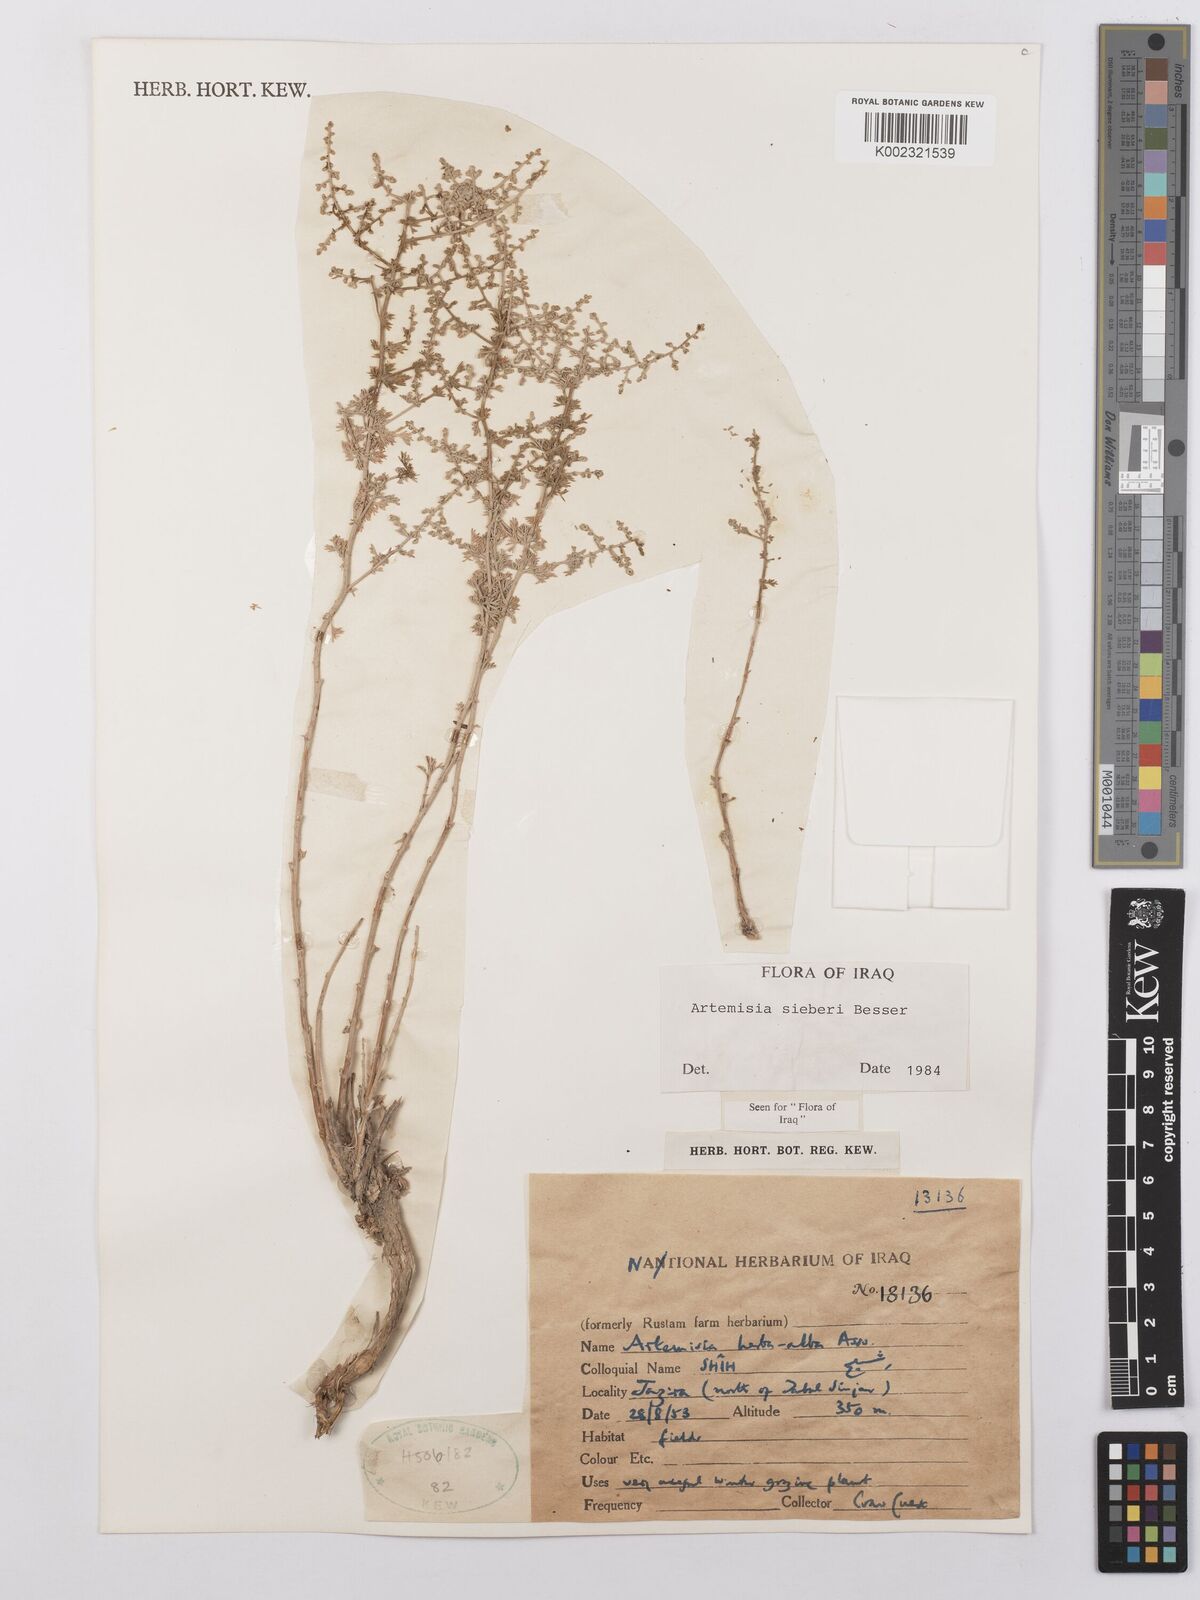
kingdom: Plantae
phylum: Tracheophyta
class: Magnoliopsida
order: Asterales
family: Asteraceae
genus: Artemisia
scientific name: Artemisia sieberi
